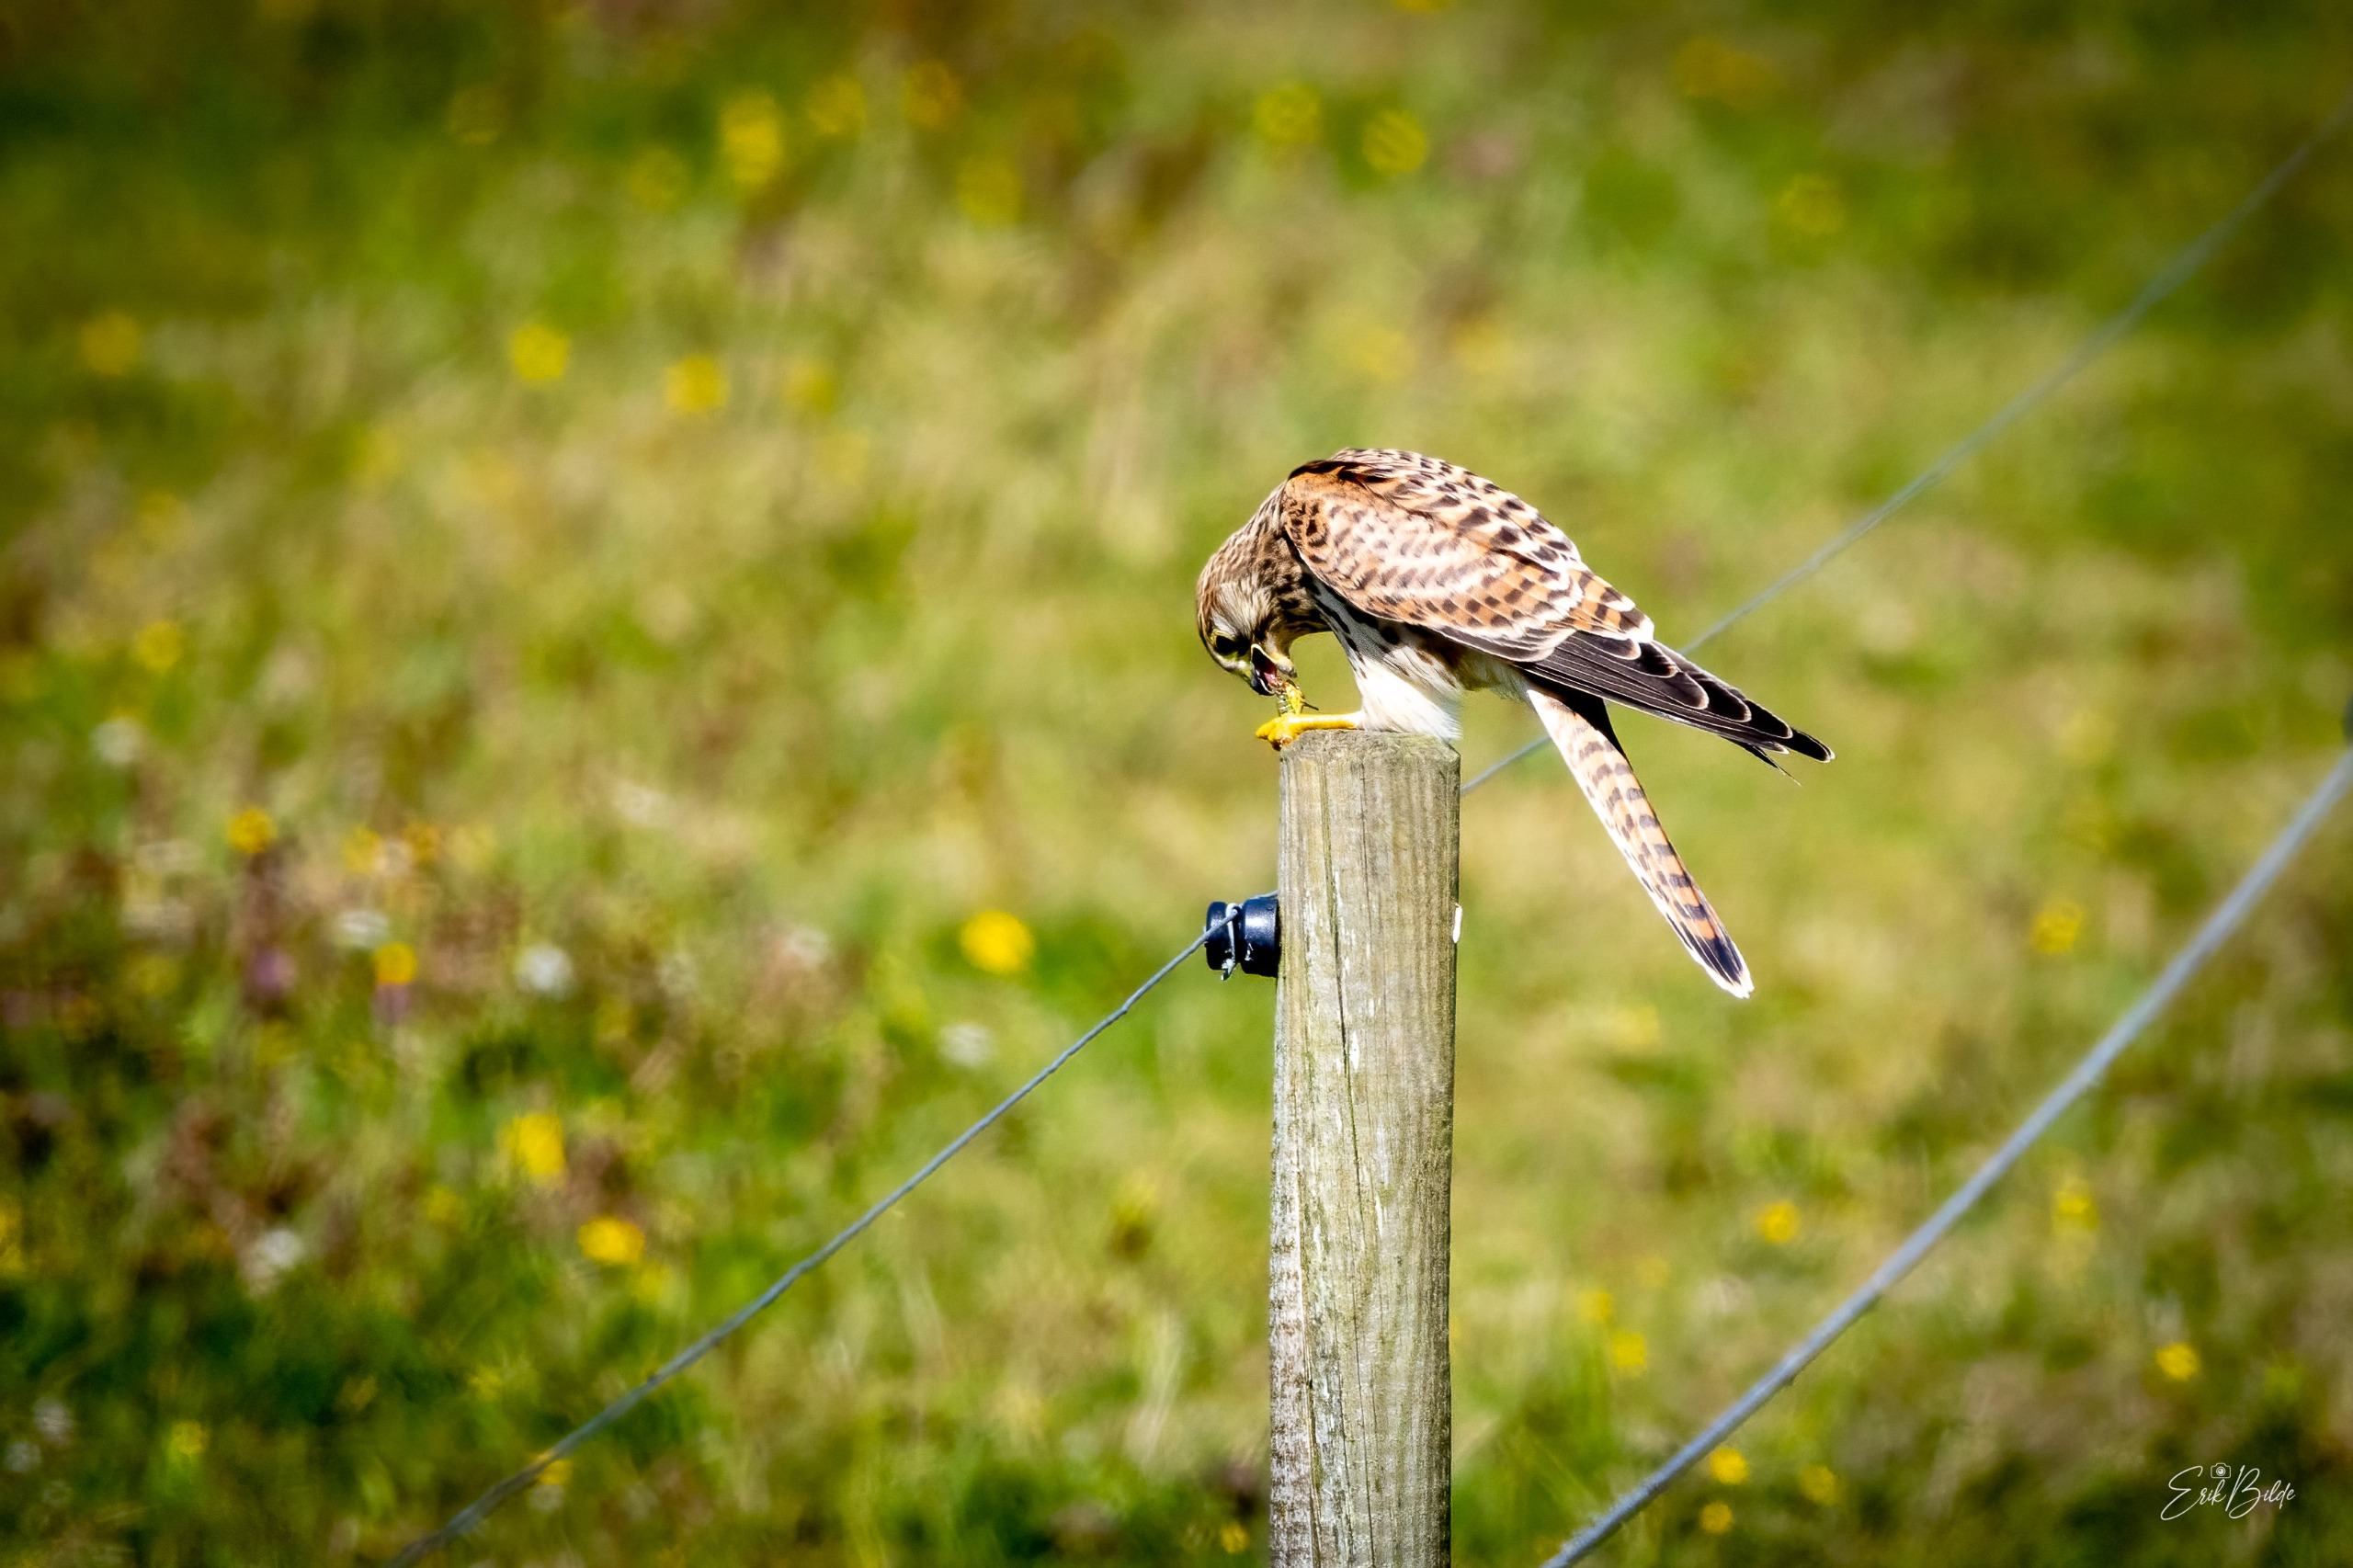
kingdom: Animalia
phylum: Chordata
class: Aves
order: Falconiformes
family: Falconidae
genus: Falco
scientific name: Falco tinnunculus
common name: Tårnfalk
